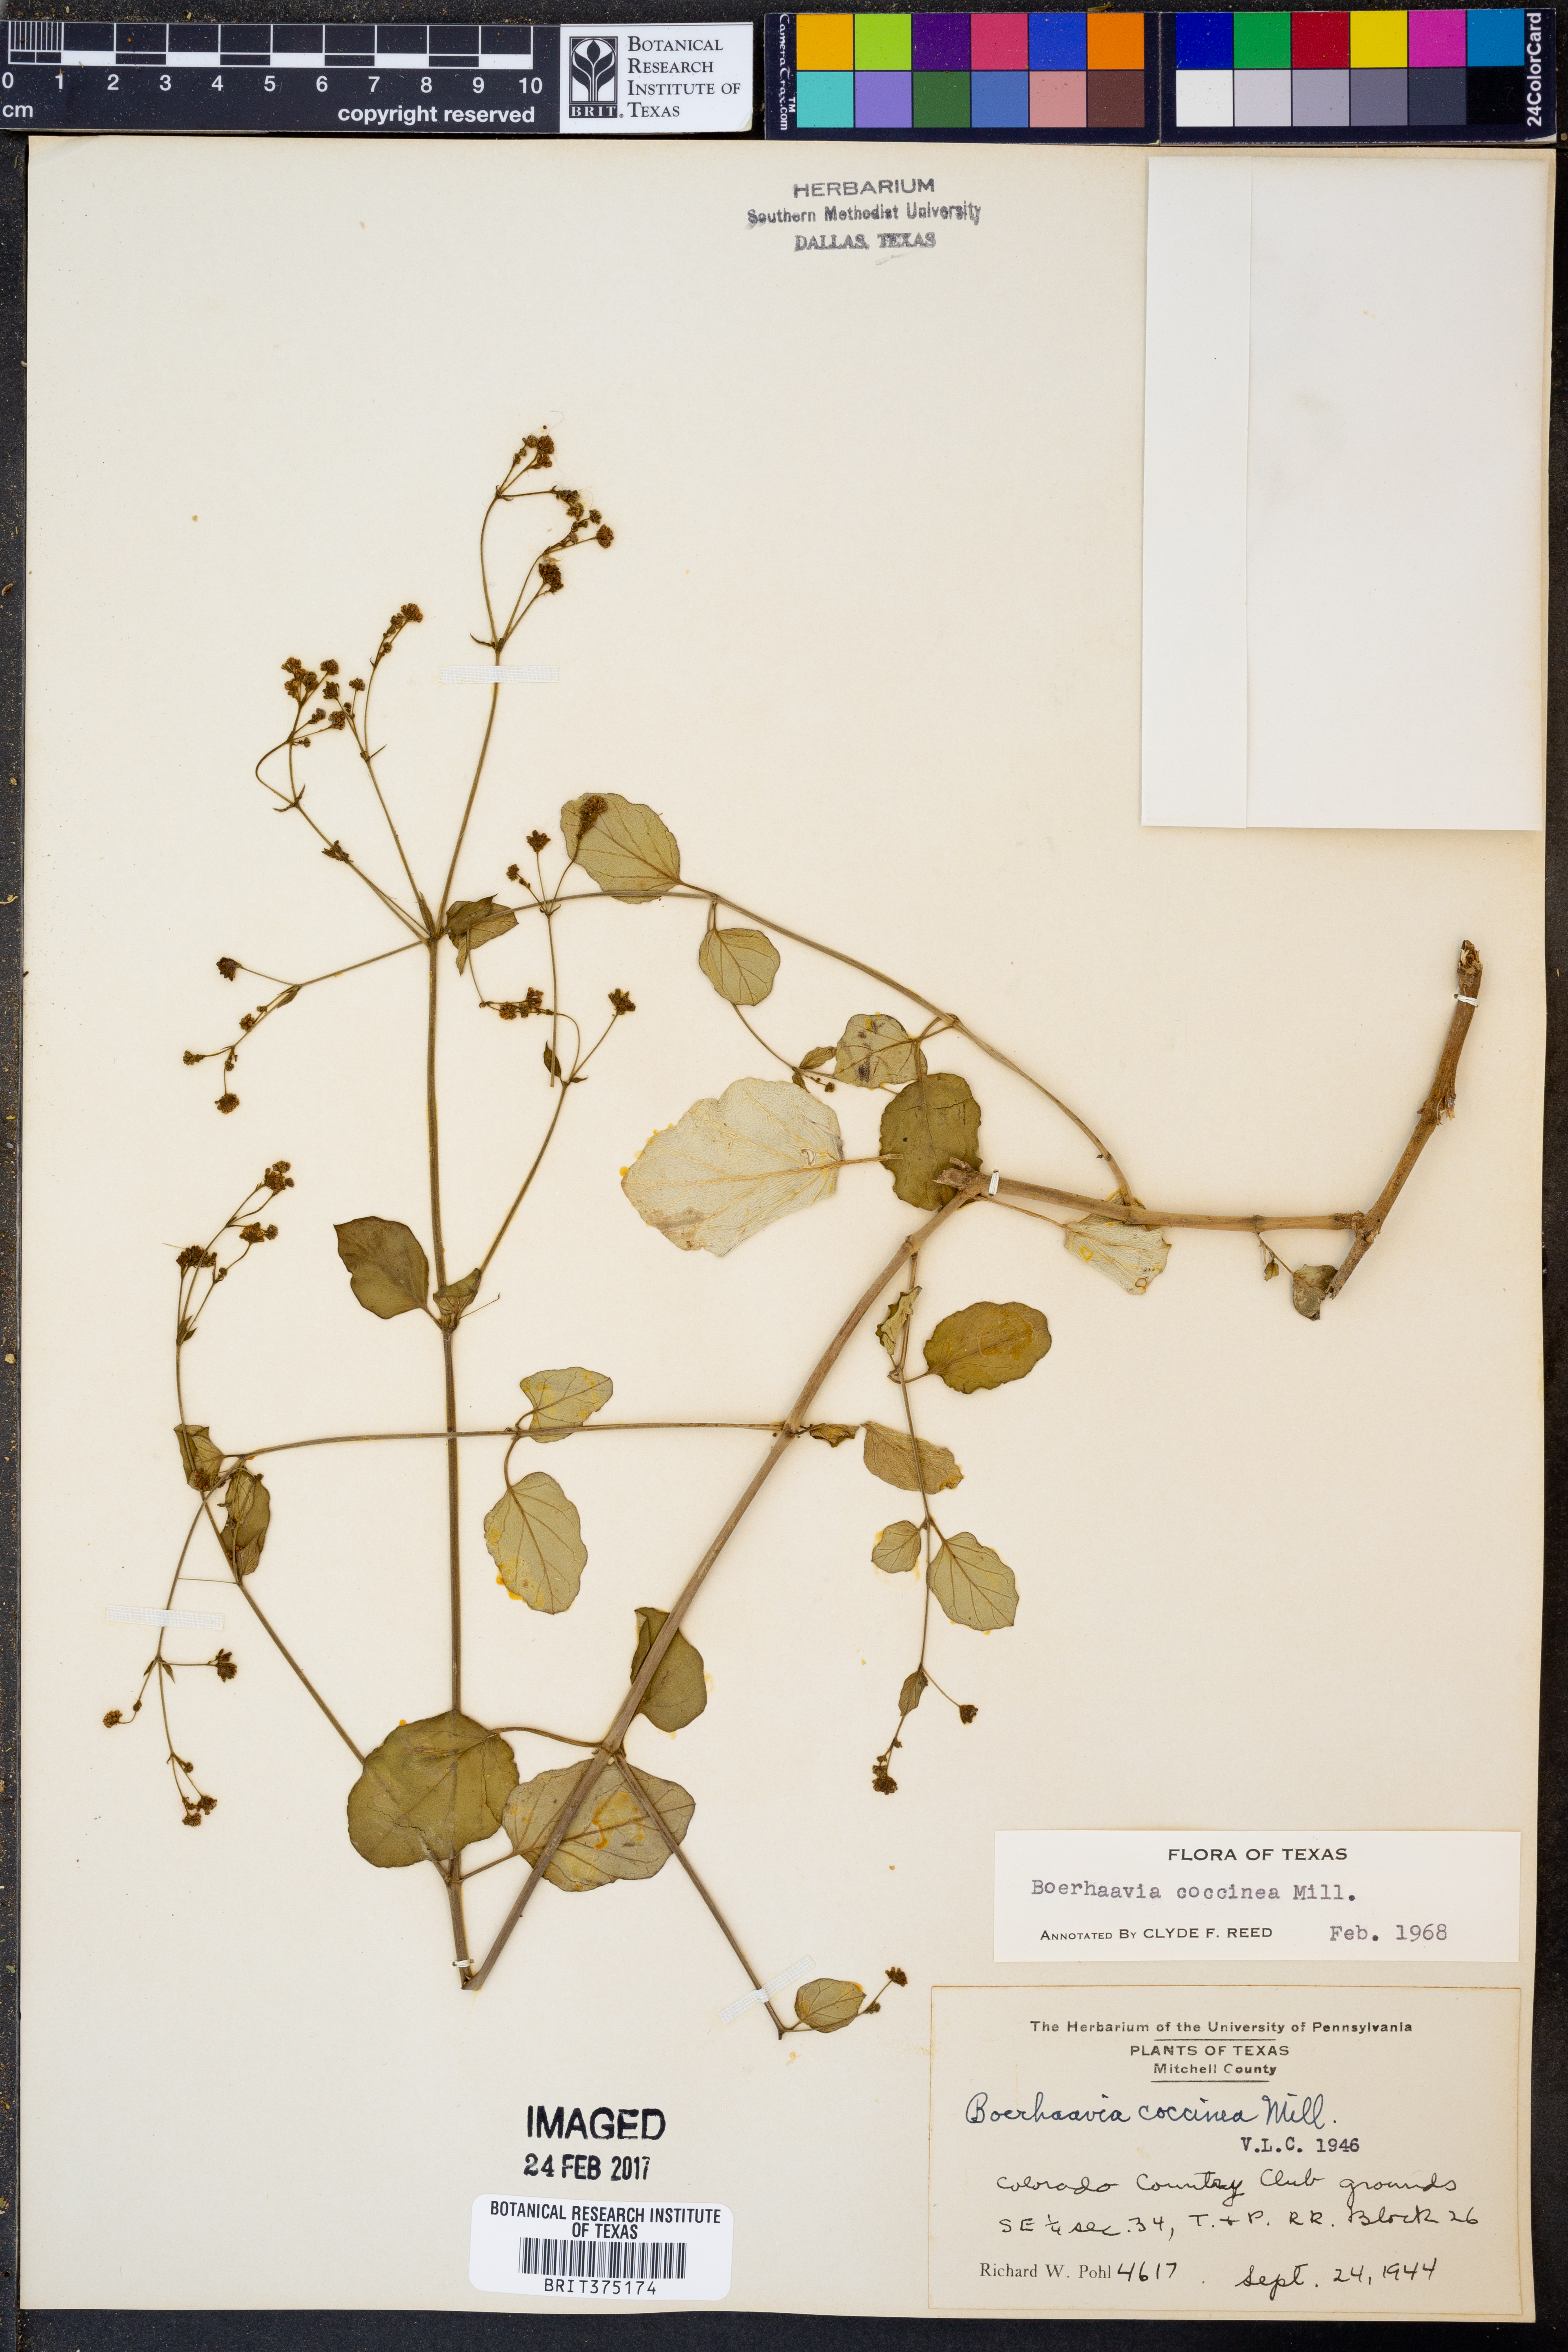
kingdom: Plantae
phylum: Tracheophyta
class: Magnoliopsida
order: Caryophyllales
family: Nyctaginaceae
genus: Boerhavia
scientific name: Boerhavia coccinea
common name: Scarlet spiderling
